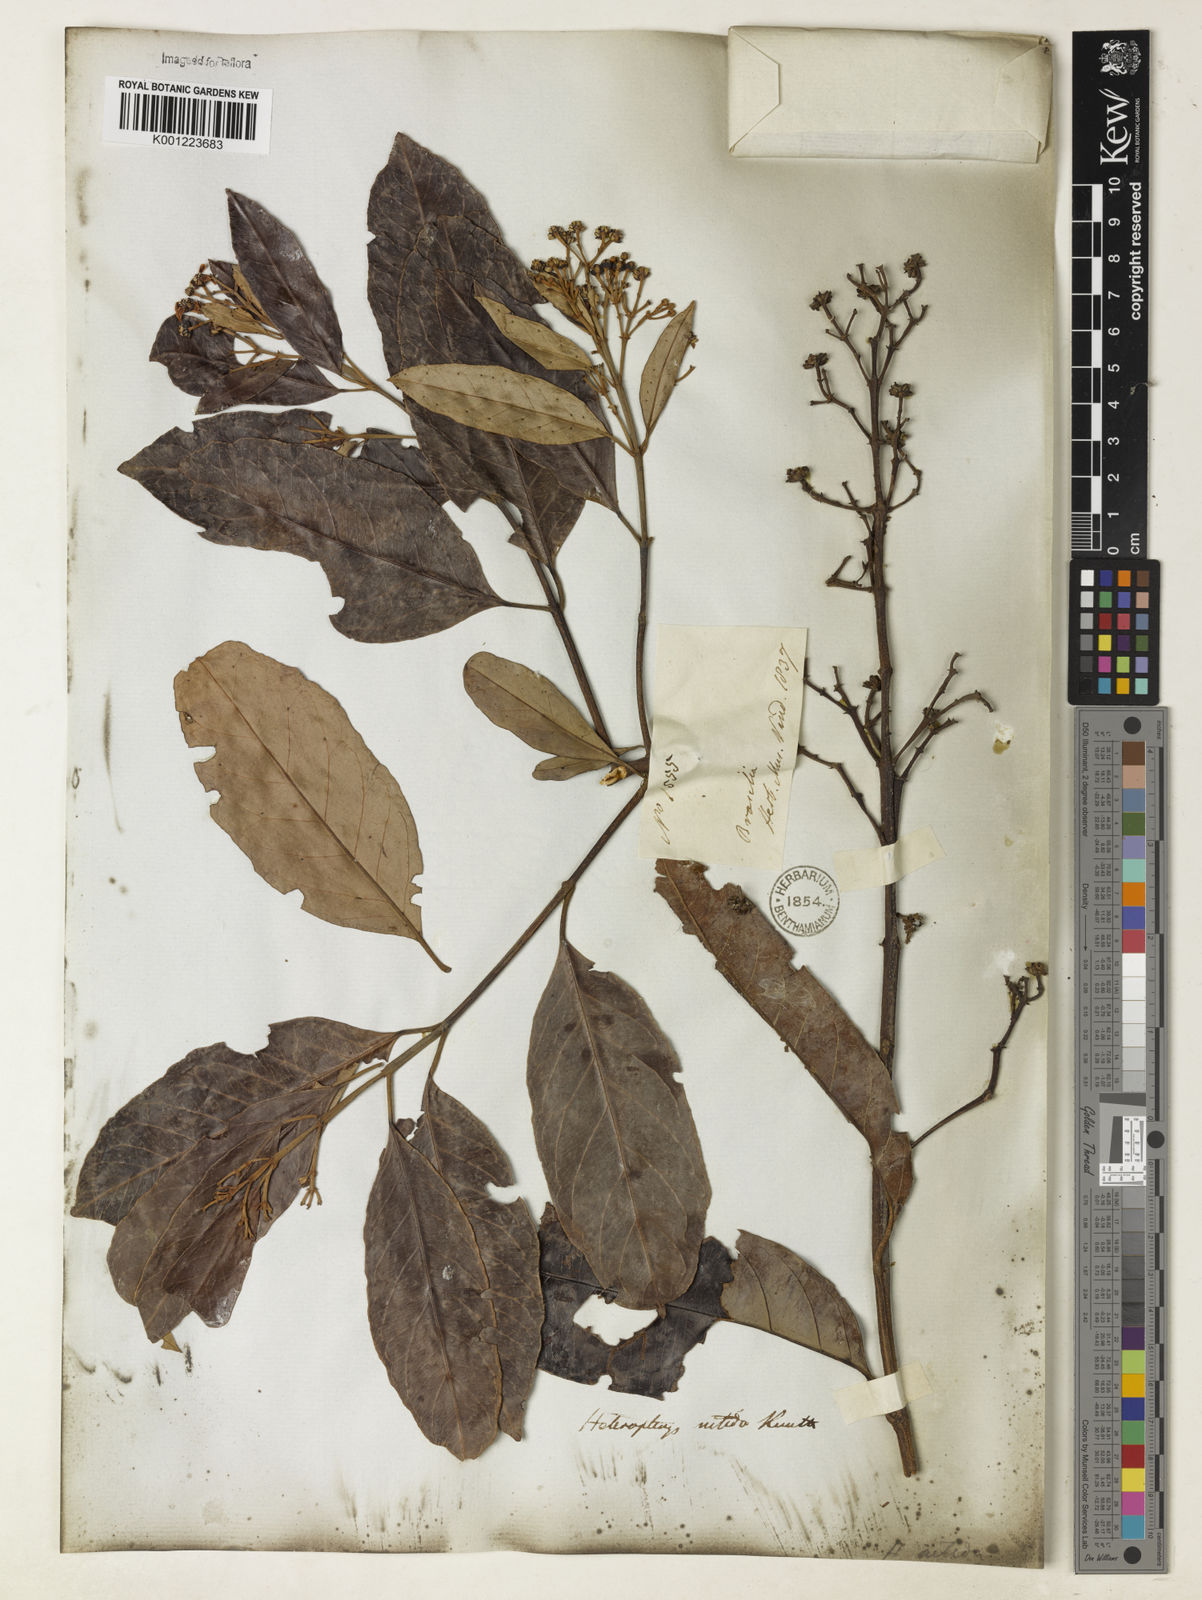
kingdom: Plantae
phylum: Tracheophyta
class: Magnoliopsida
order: Malpighiales
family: Malpighiaceae
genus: Heteropterys
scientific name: Heteropterys nitida
